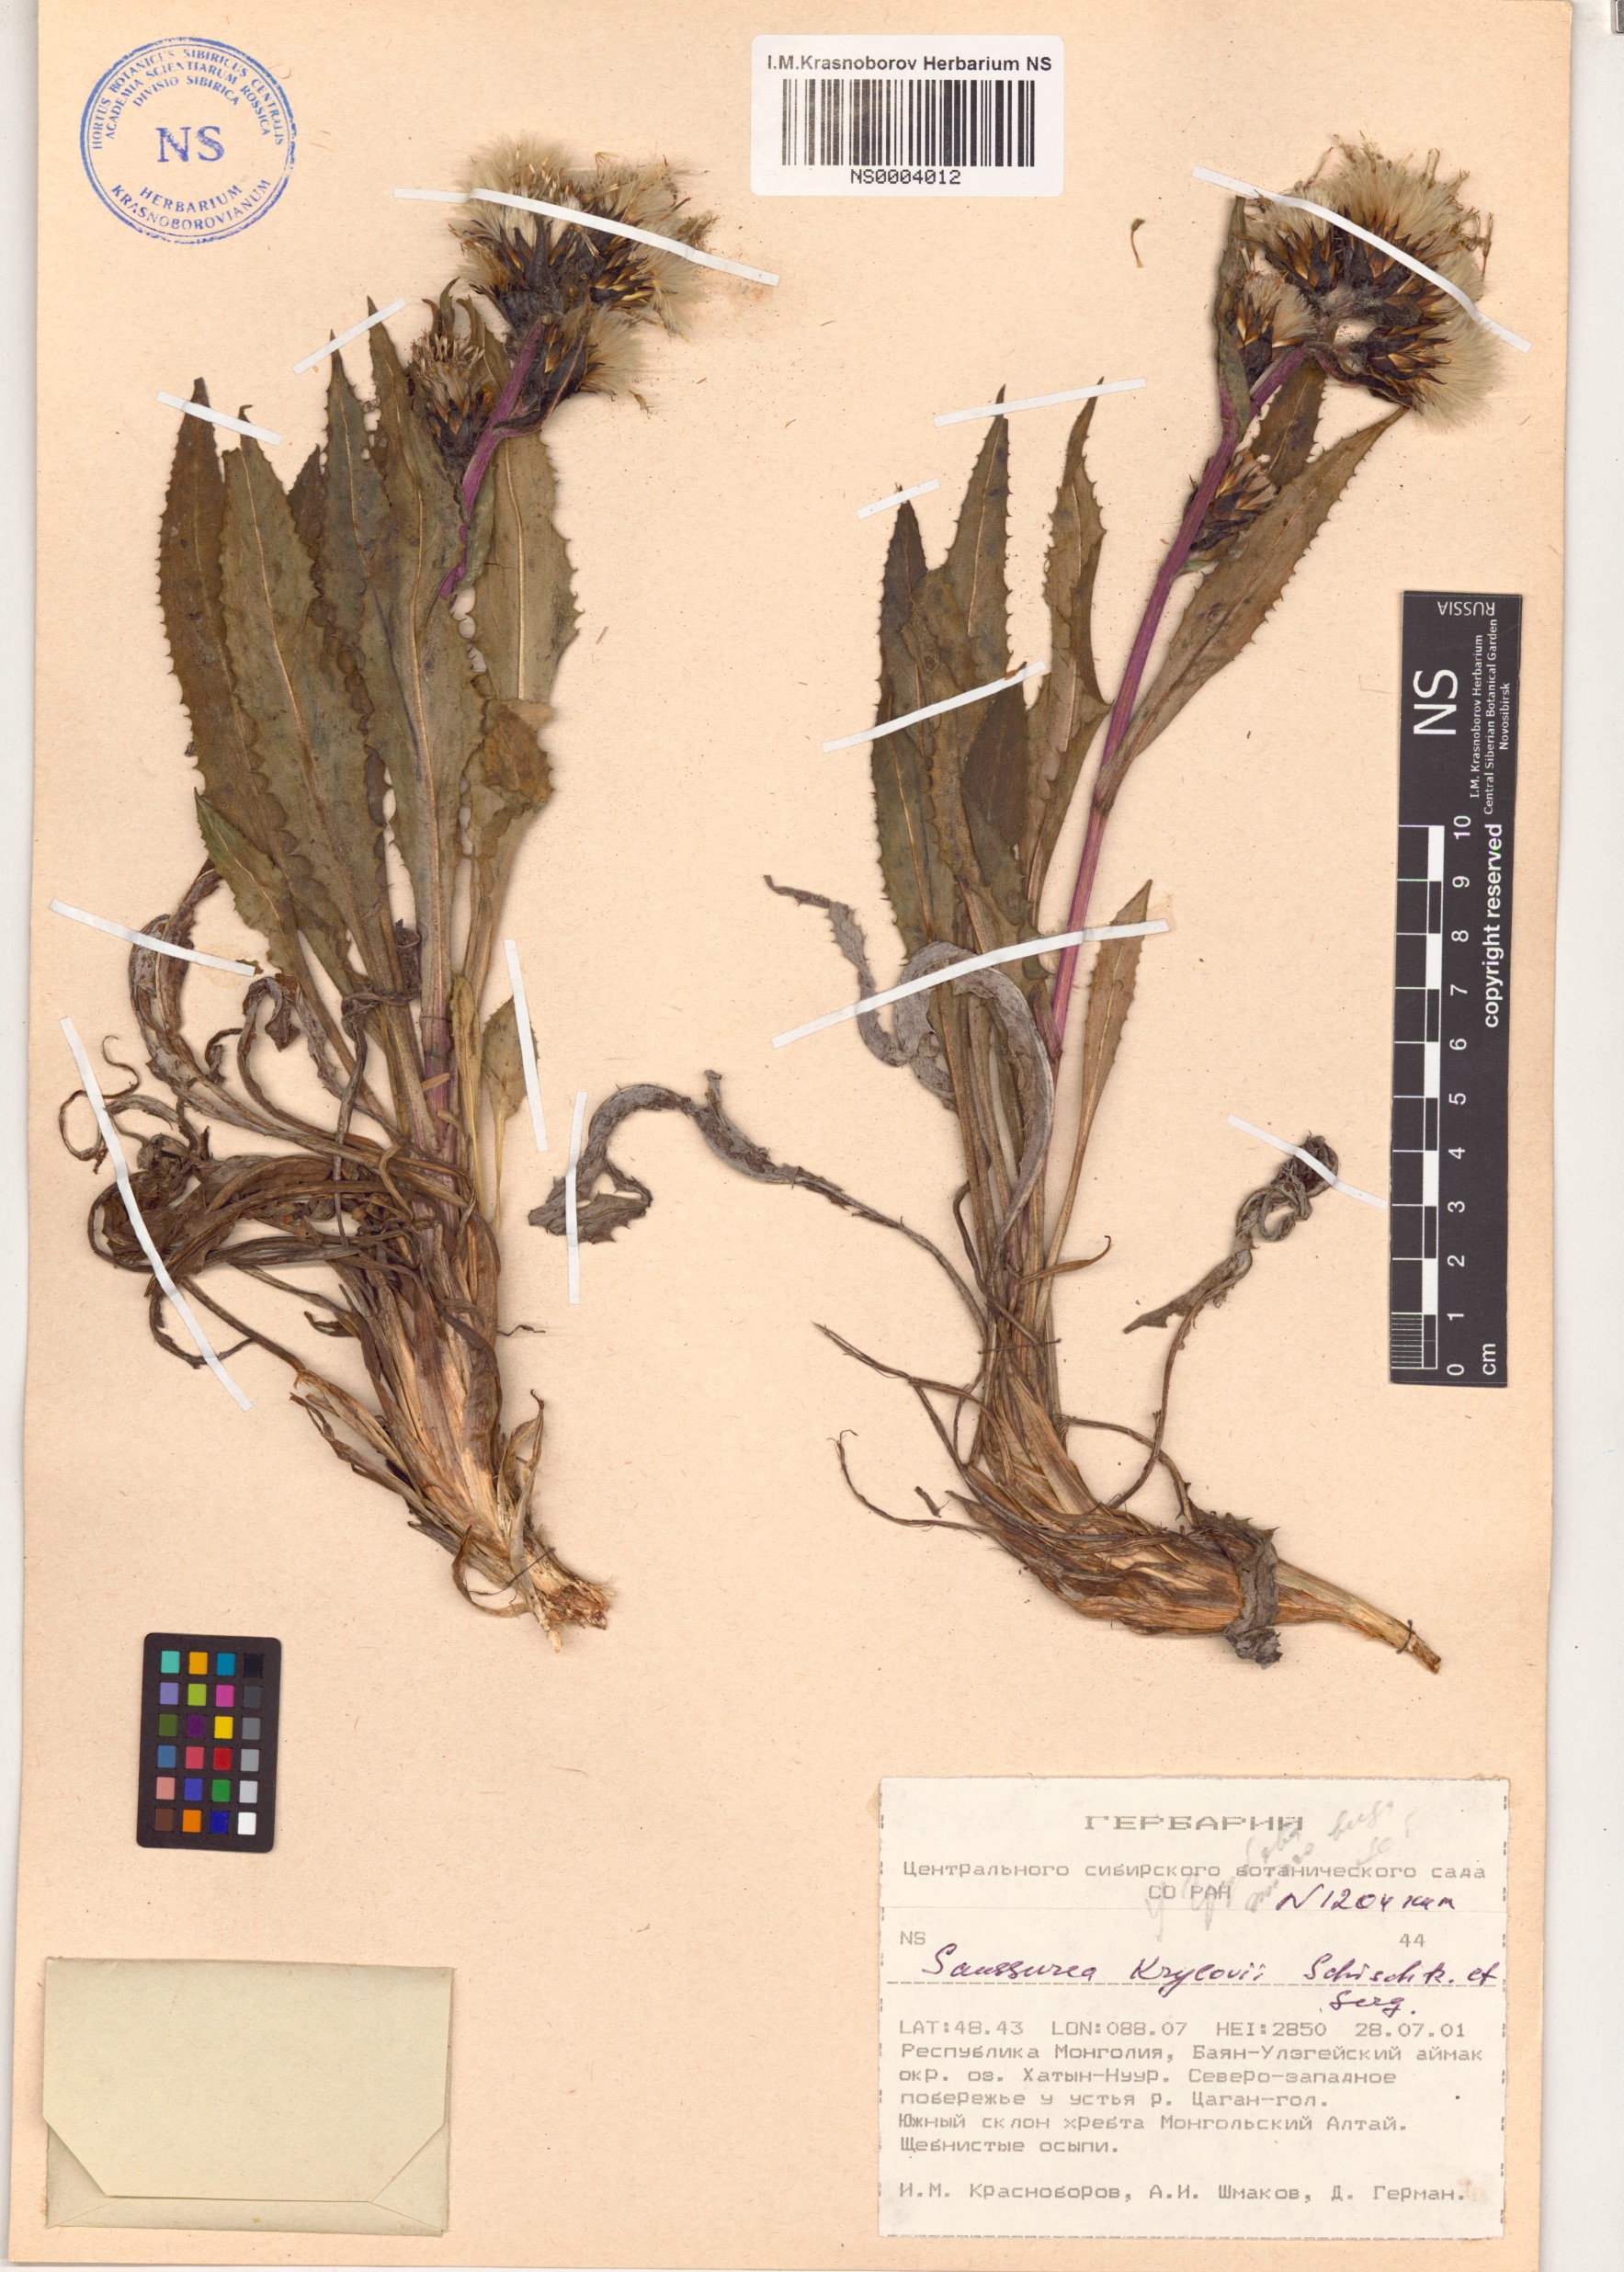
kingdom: Plantae
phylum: Tracheophyta
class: Magnoliopsida
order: Asterales
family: Asteraceae
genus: Saussurea
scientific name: Saussurea krylovii
